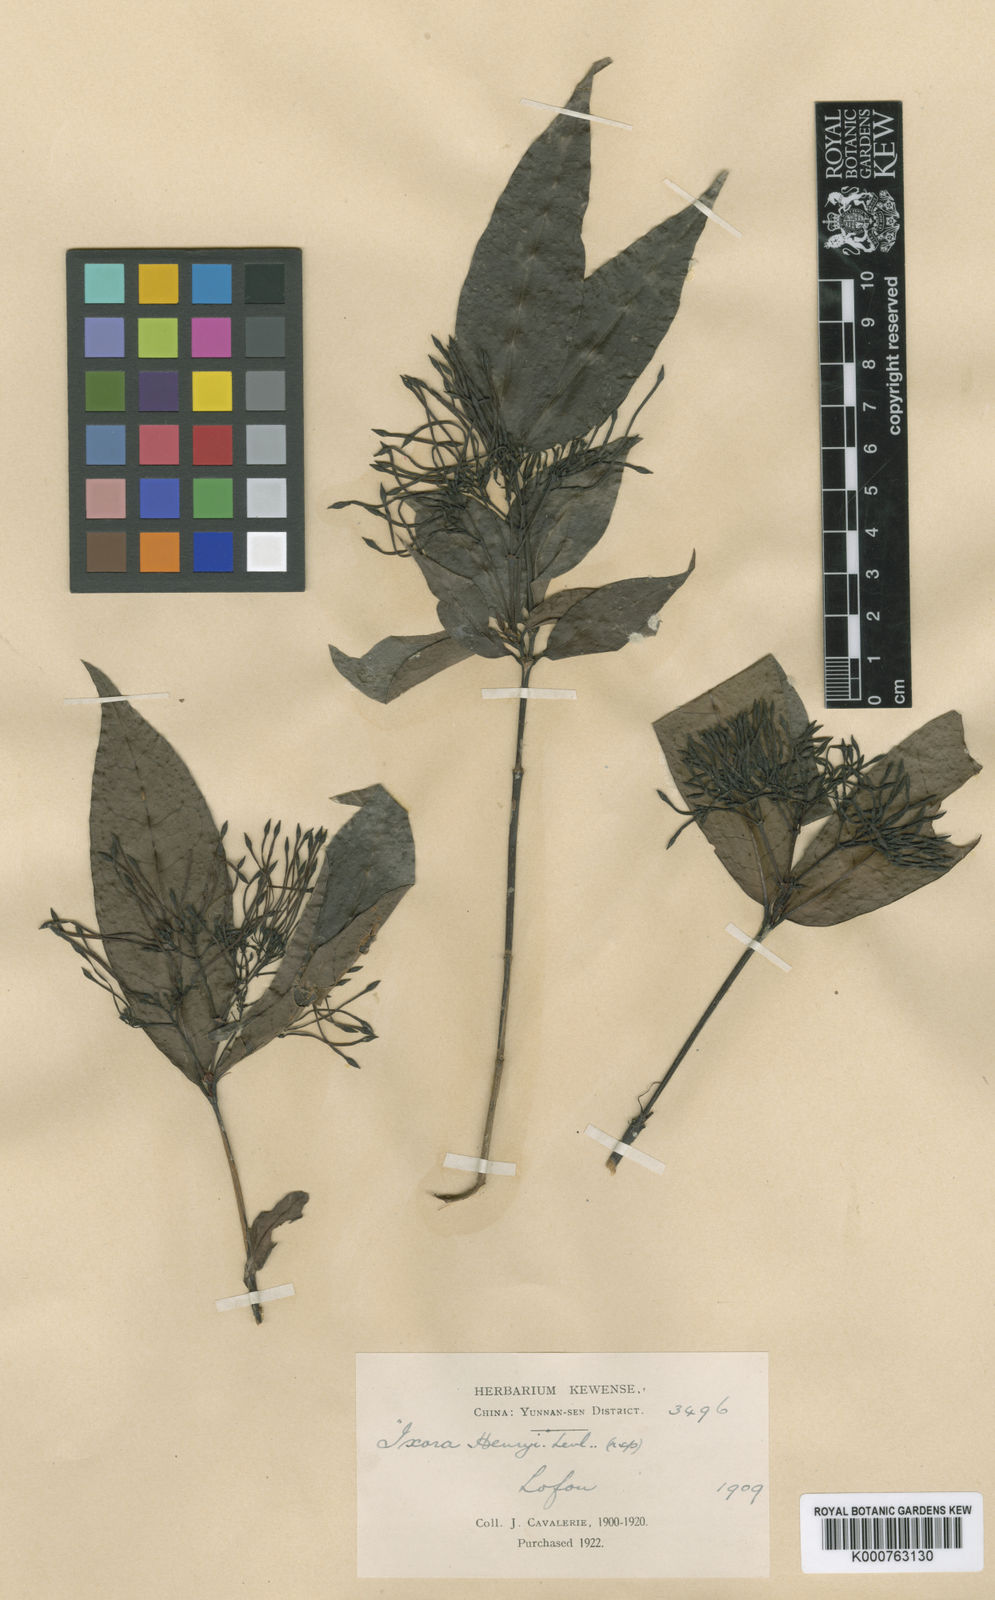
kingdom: Plantae
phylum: Tracheophyta
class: Magnoliopsida
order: Gentianales
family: Rubiaceae
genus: Ixora
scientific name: Ixora
